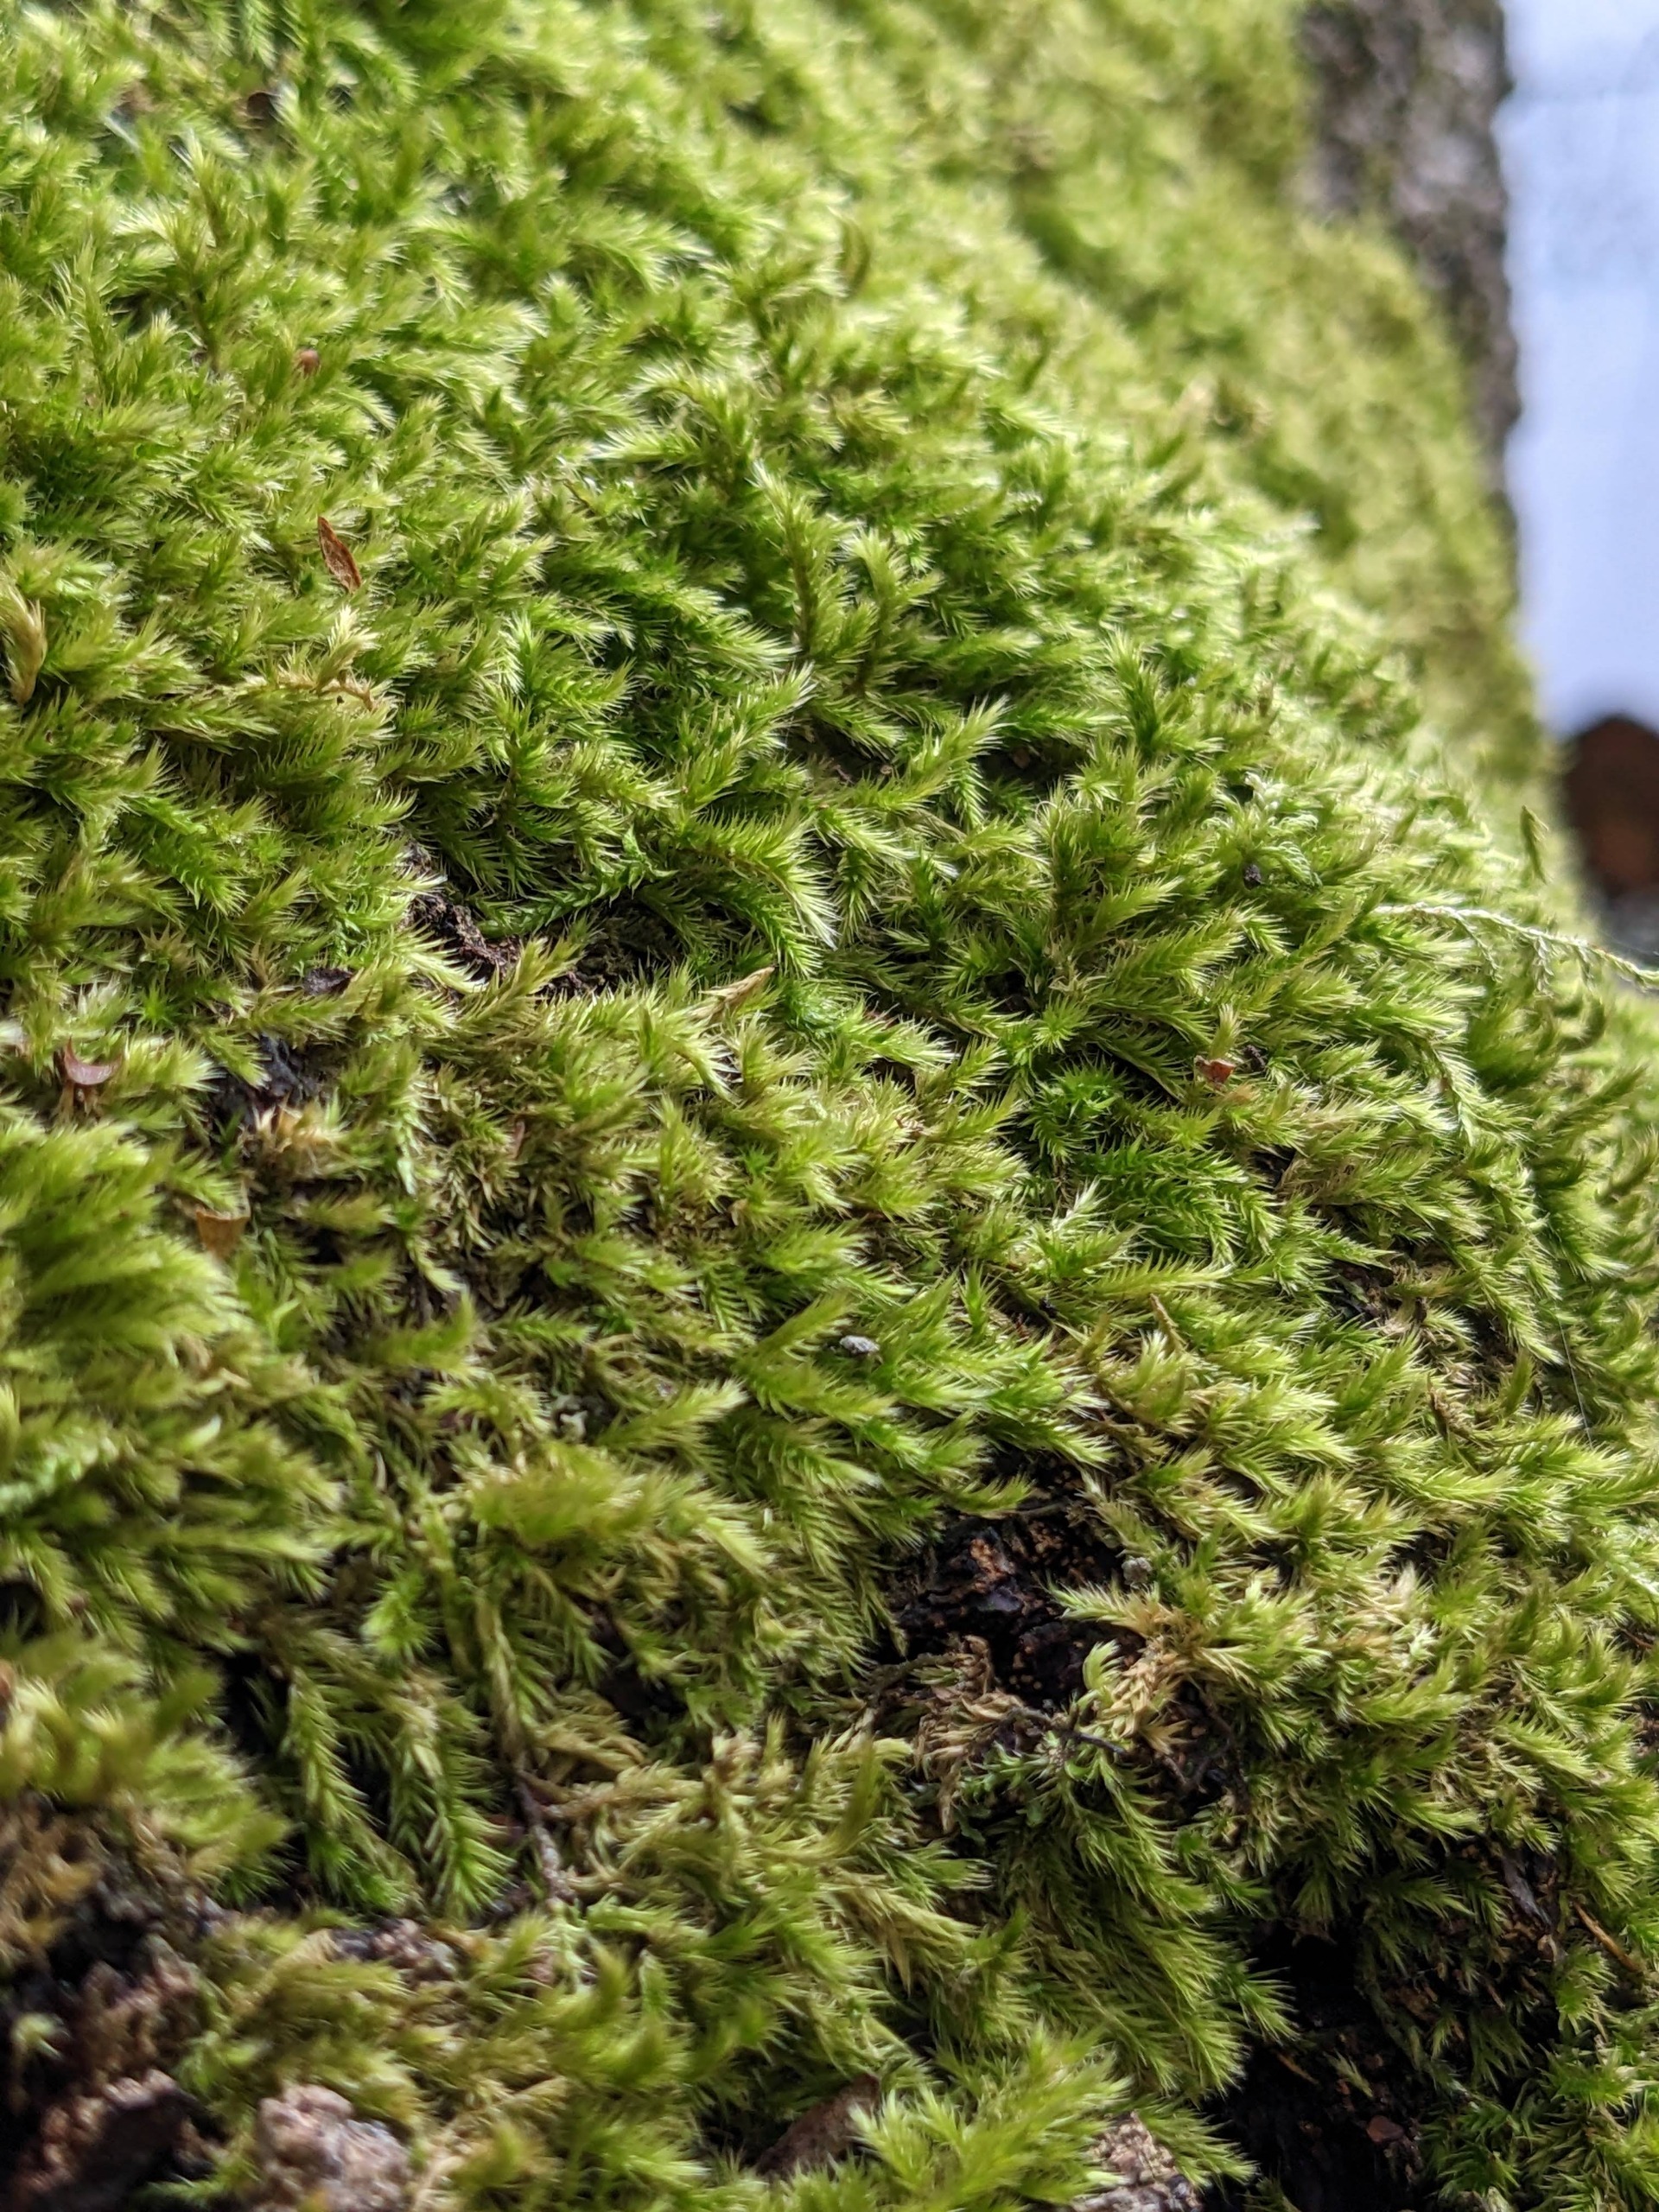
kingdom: Plantae
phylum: Bryophyta
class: Bryopsida
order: Hypnales
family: Brachytheciaceae
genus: Homalothecium
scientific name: Homalothecium sericeum
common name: Krybende silkemos
